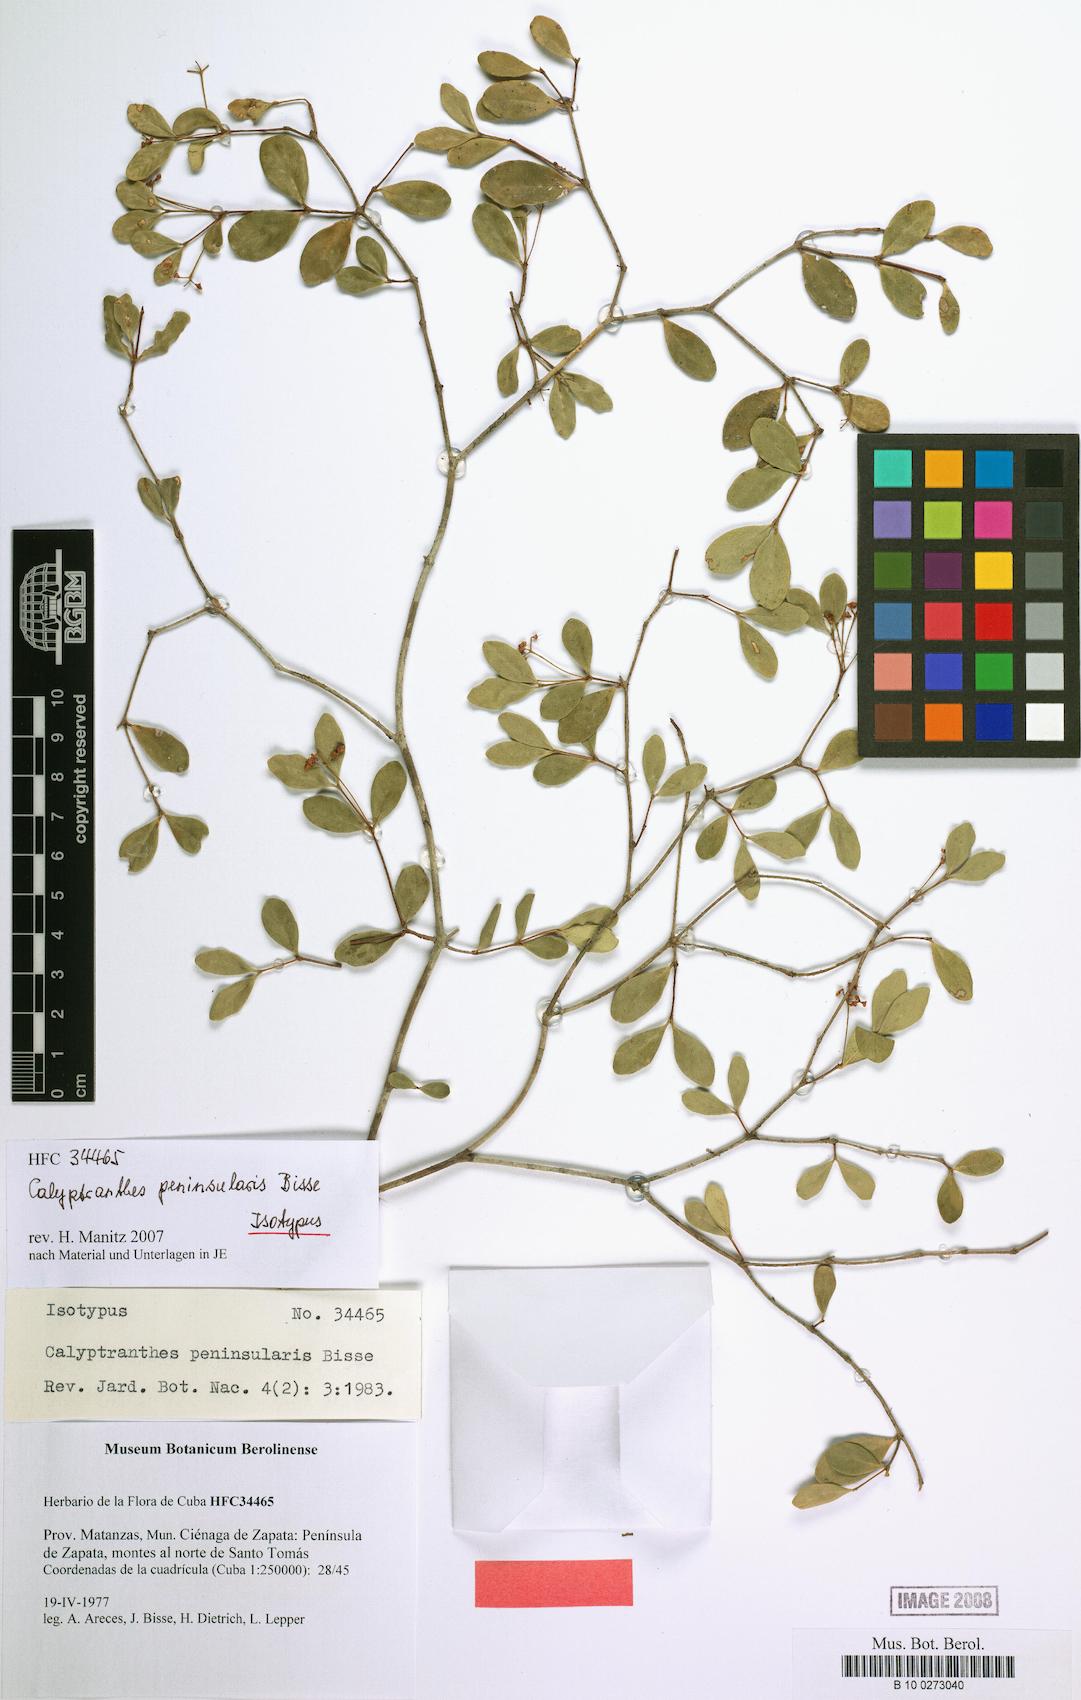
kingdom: Plantae
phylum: Tracheophyta
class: Magnoliopsida
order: Myrtales
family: Myrtaceae
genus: Myrcia
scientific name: Myrcia peninsularis
